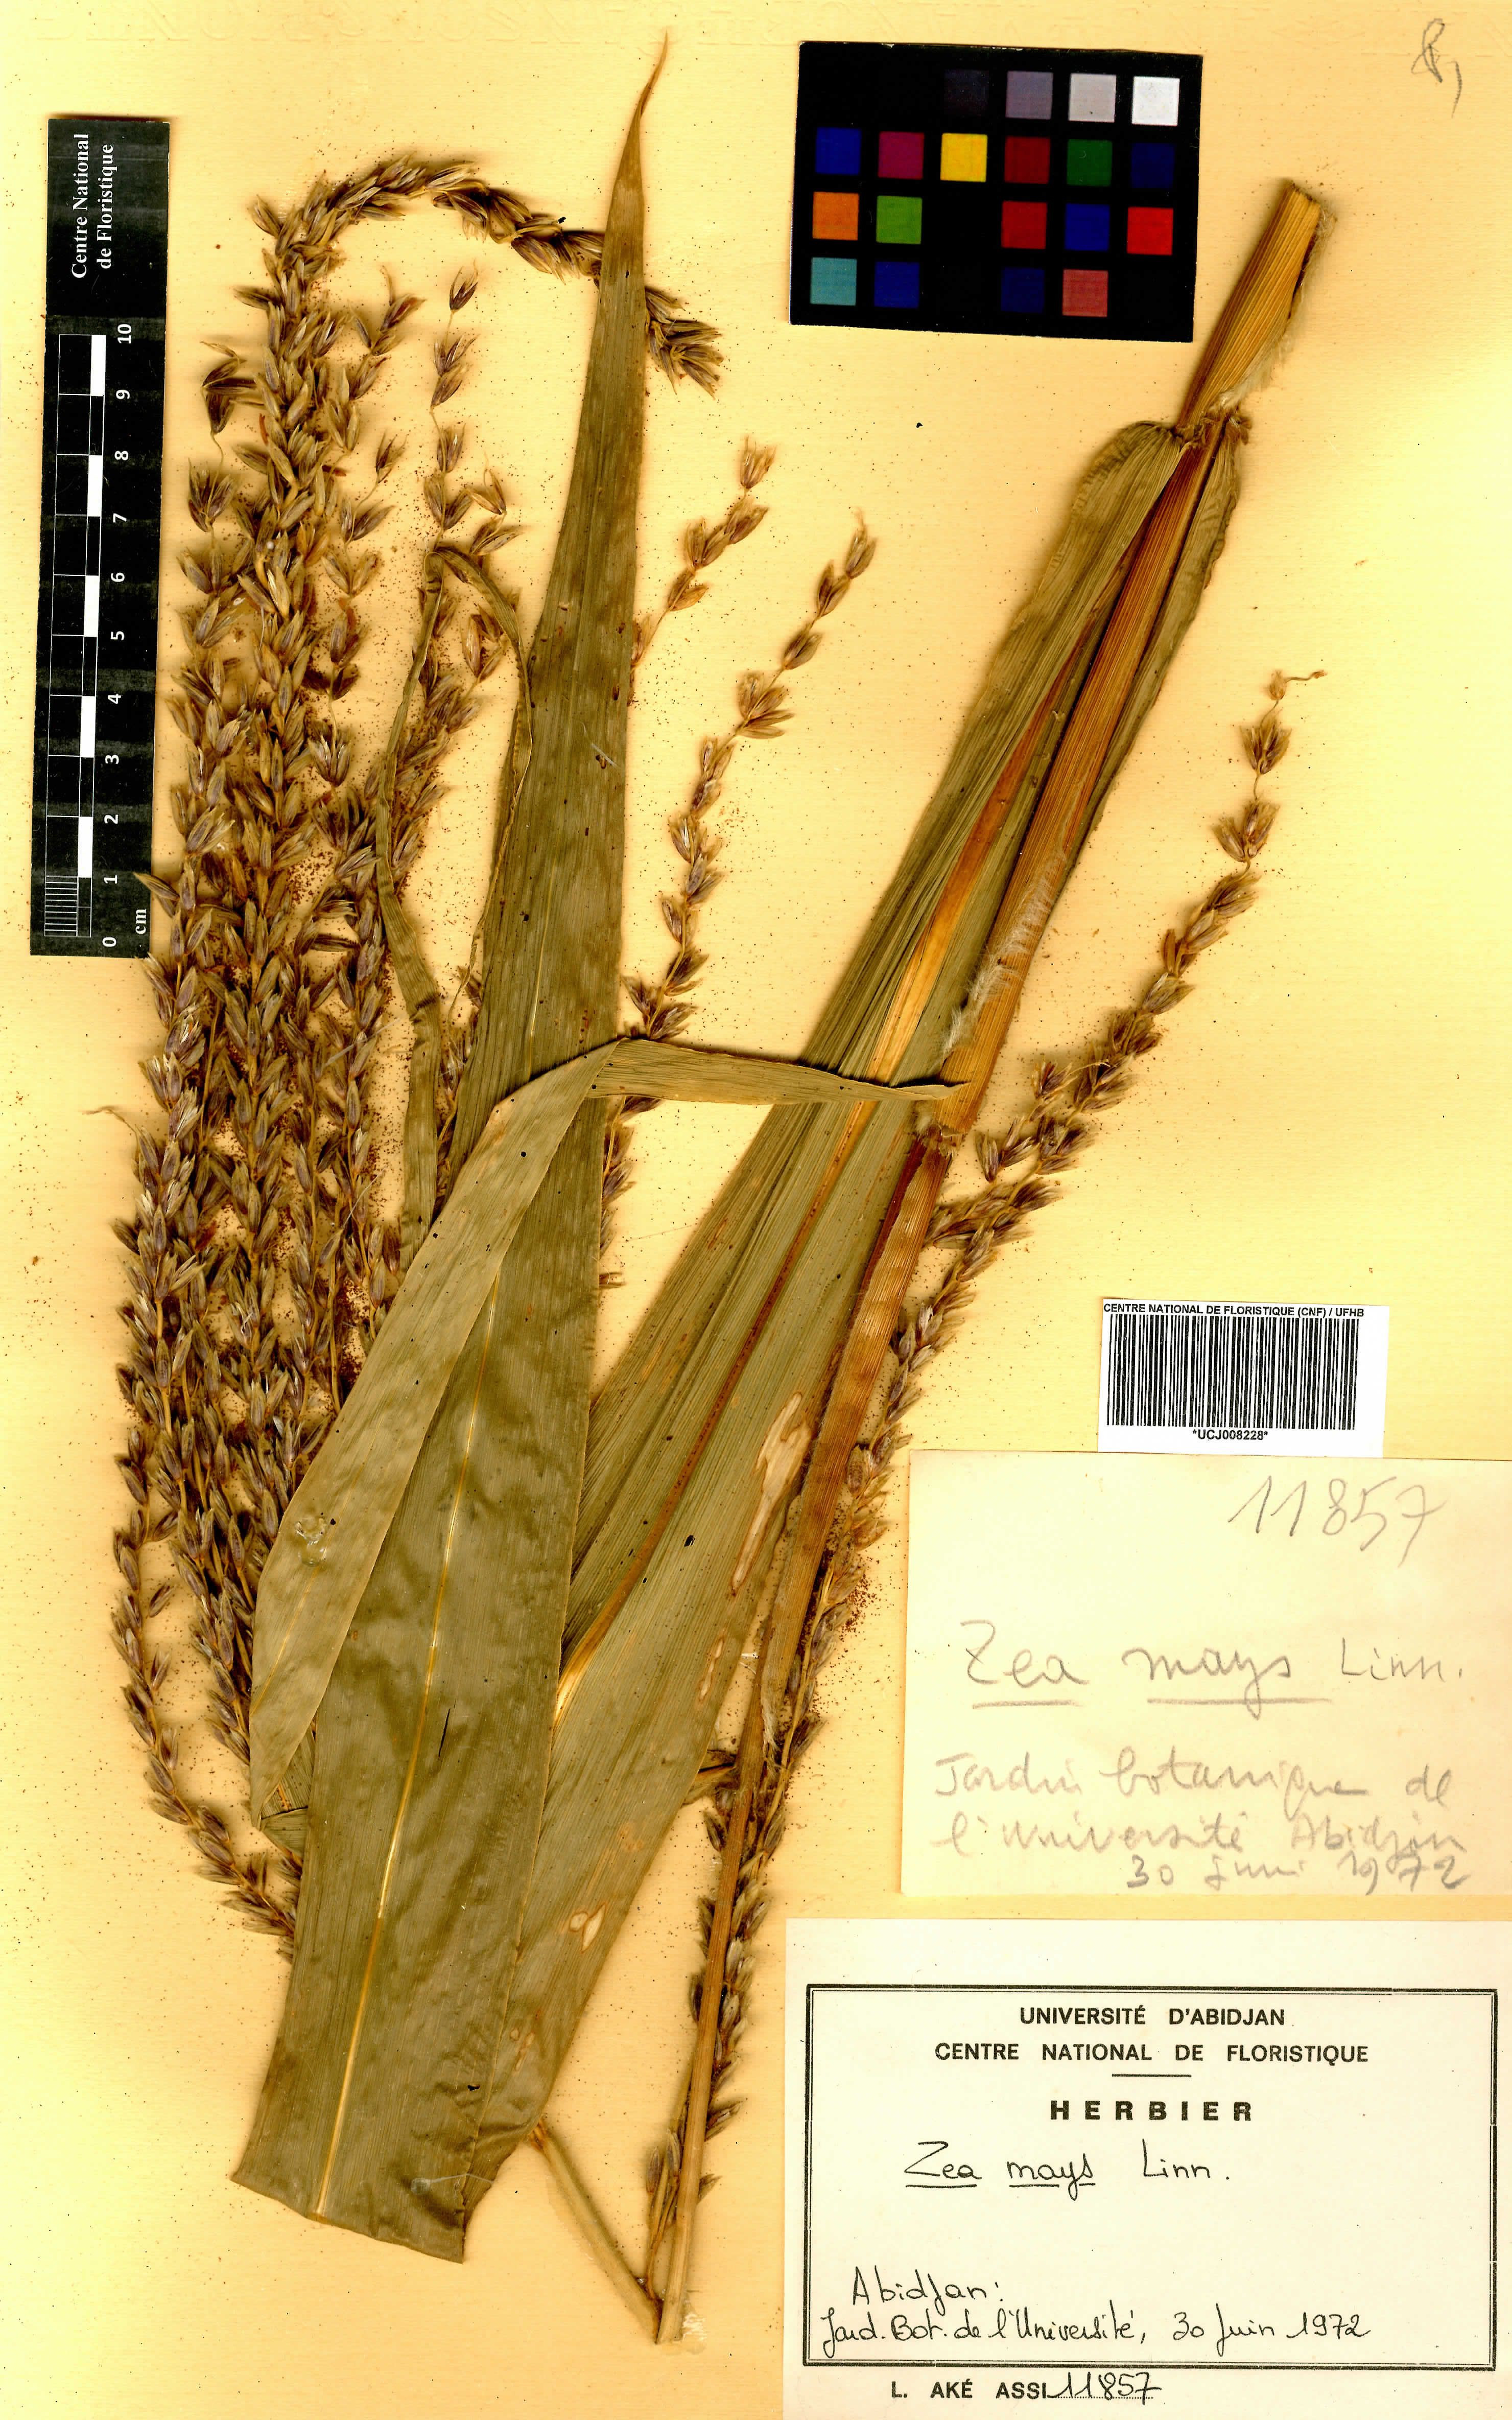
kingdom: Plantae
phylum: Tracheophyta
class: Liliopsida
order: Poales
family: Poaceae
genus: Zea
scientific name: Zea mays
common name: Maize
